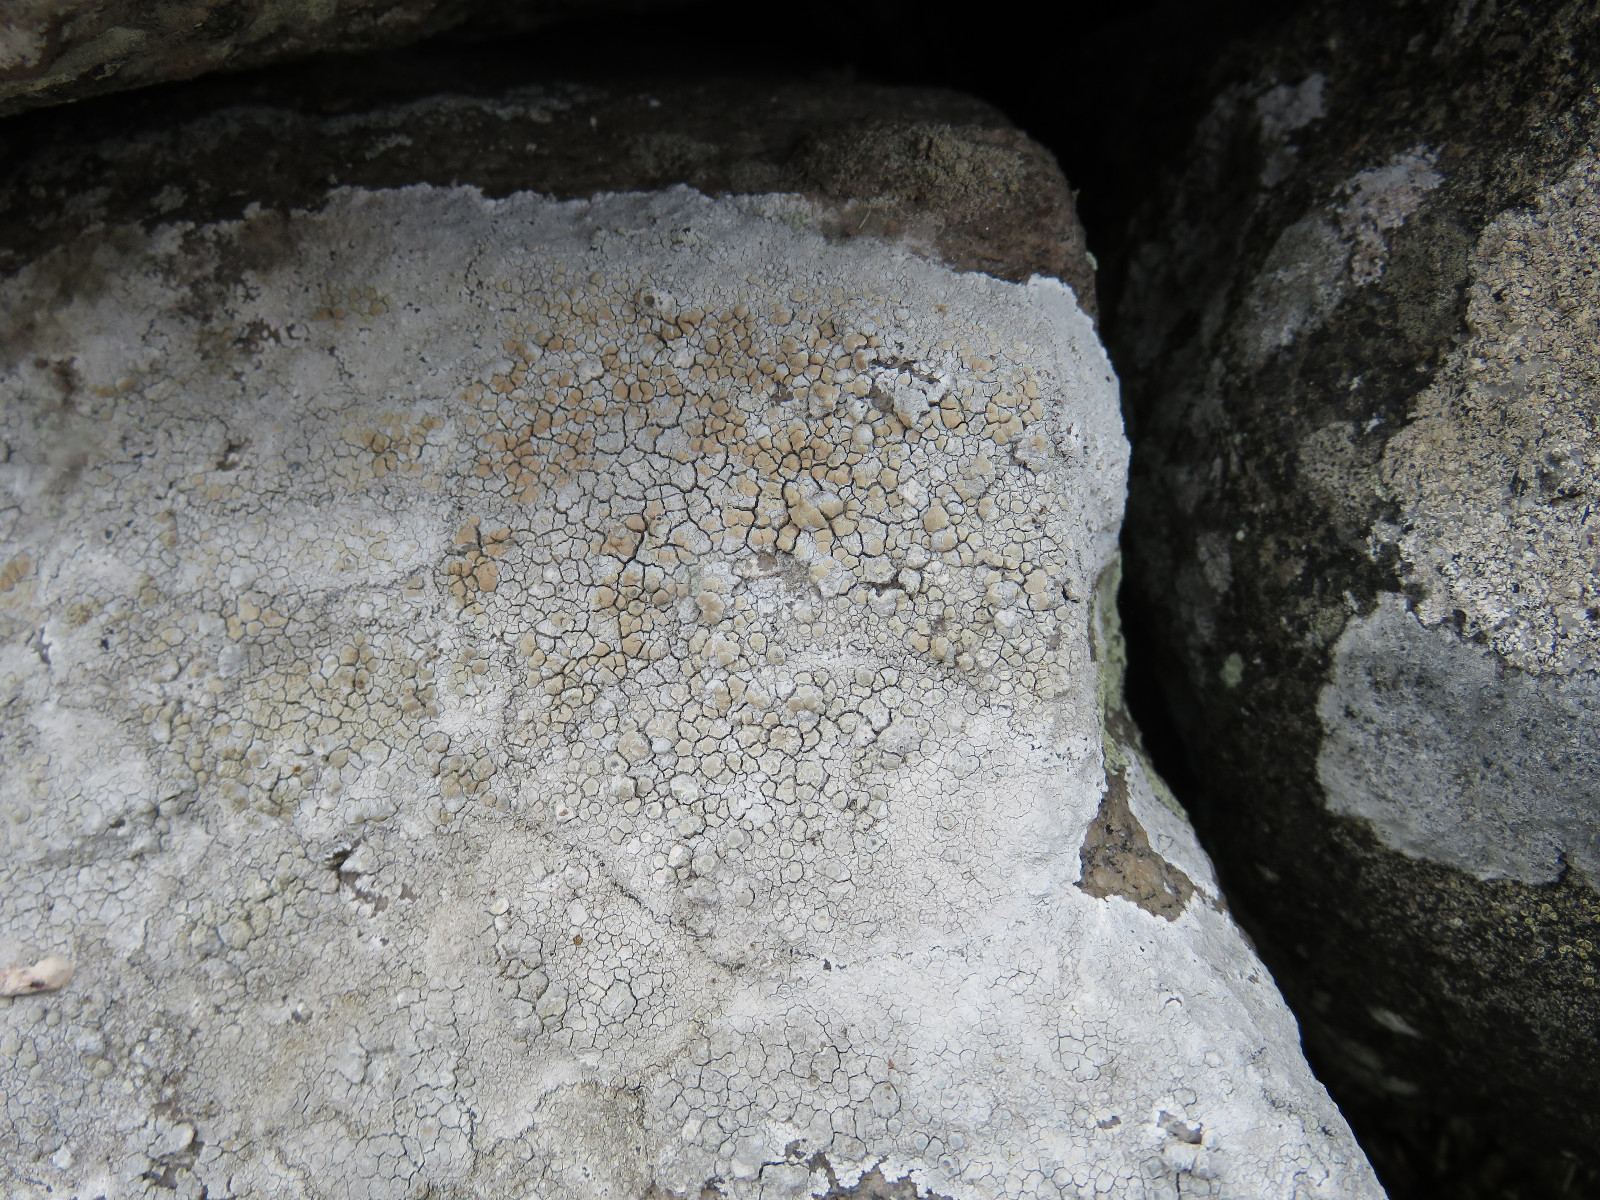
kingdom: Fungi
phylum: Ascomycota
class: Lecanoromycetes
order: Lecanorales
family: Lecanoraceae
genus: Glaucomaria
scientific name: Glaucomaria rupicola
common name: stengærde-kantskivelav
